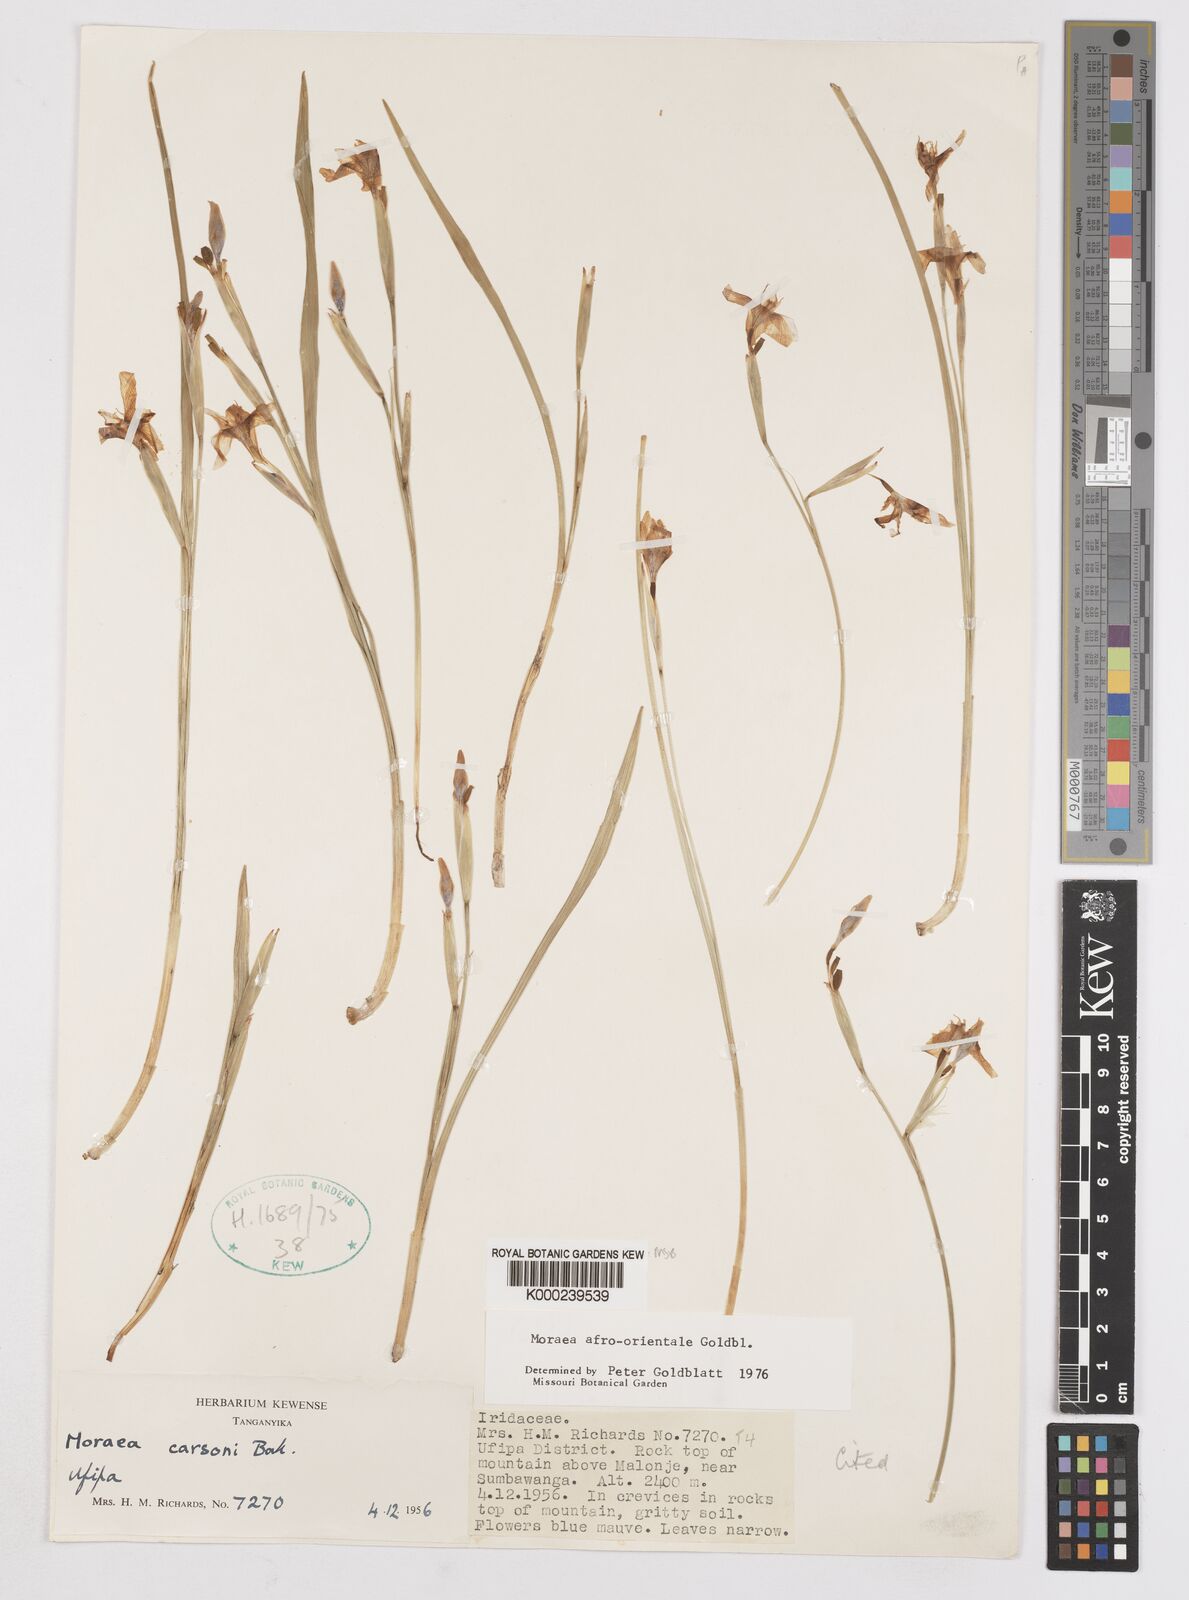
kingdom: Plantae
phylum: Tracheophyta
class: Liliopsida
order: Asparagales
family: Iridaceae
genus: Moraea
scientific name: Moraea
